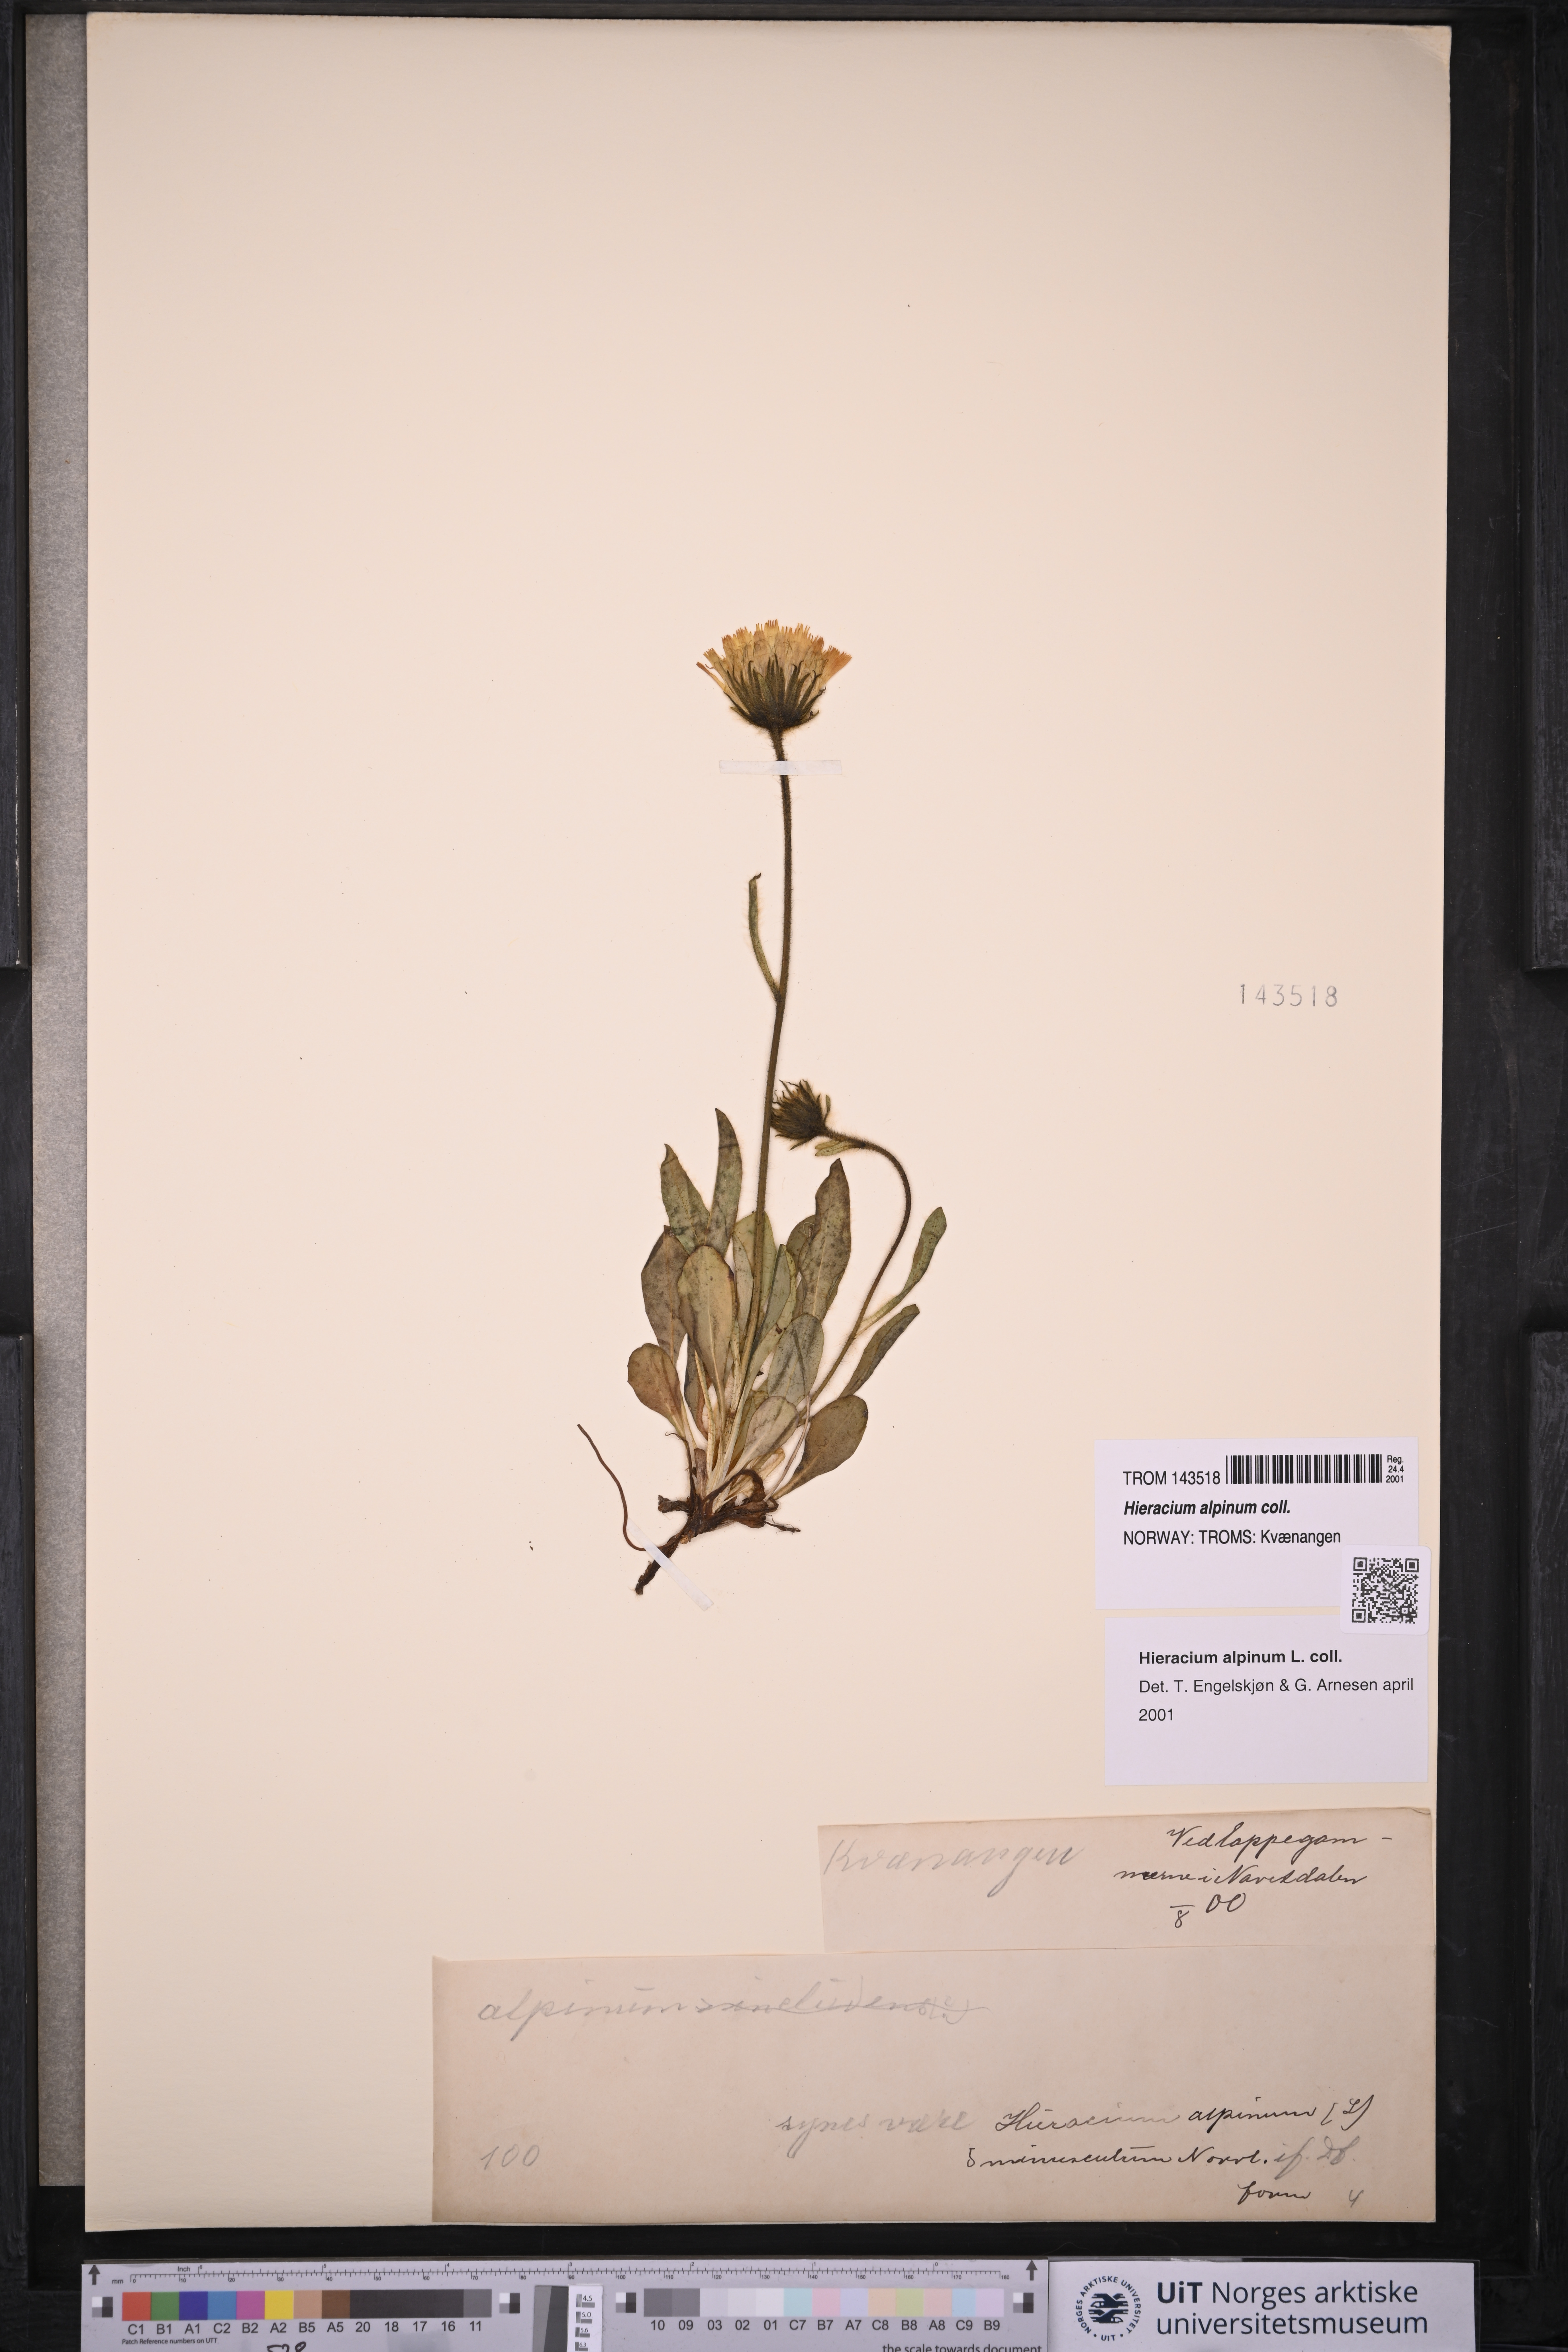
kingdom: Plantae
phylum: Tracheophyta
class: Magnoliopsida
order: Asterales
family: Asteraceae
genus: Hieracium
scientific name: Hieracium alpinum
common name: Alpine hawkweed
